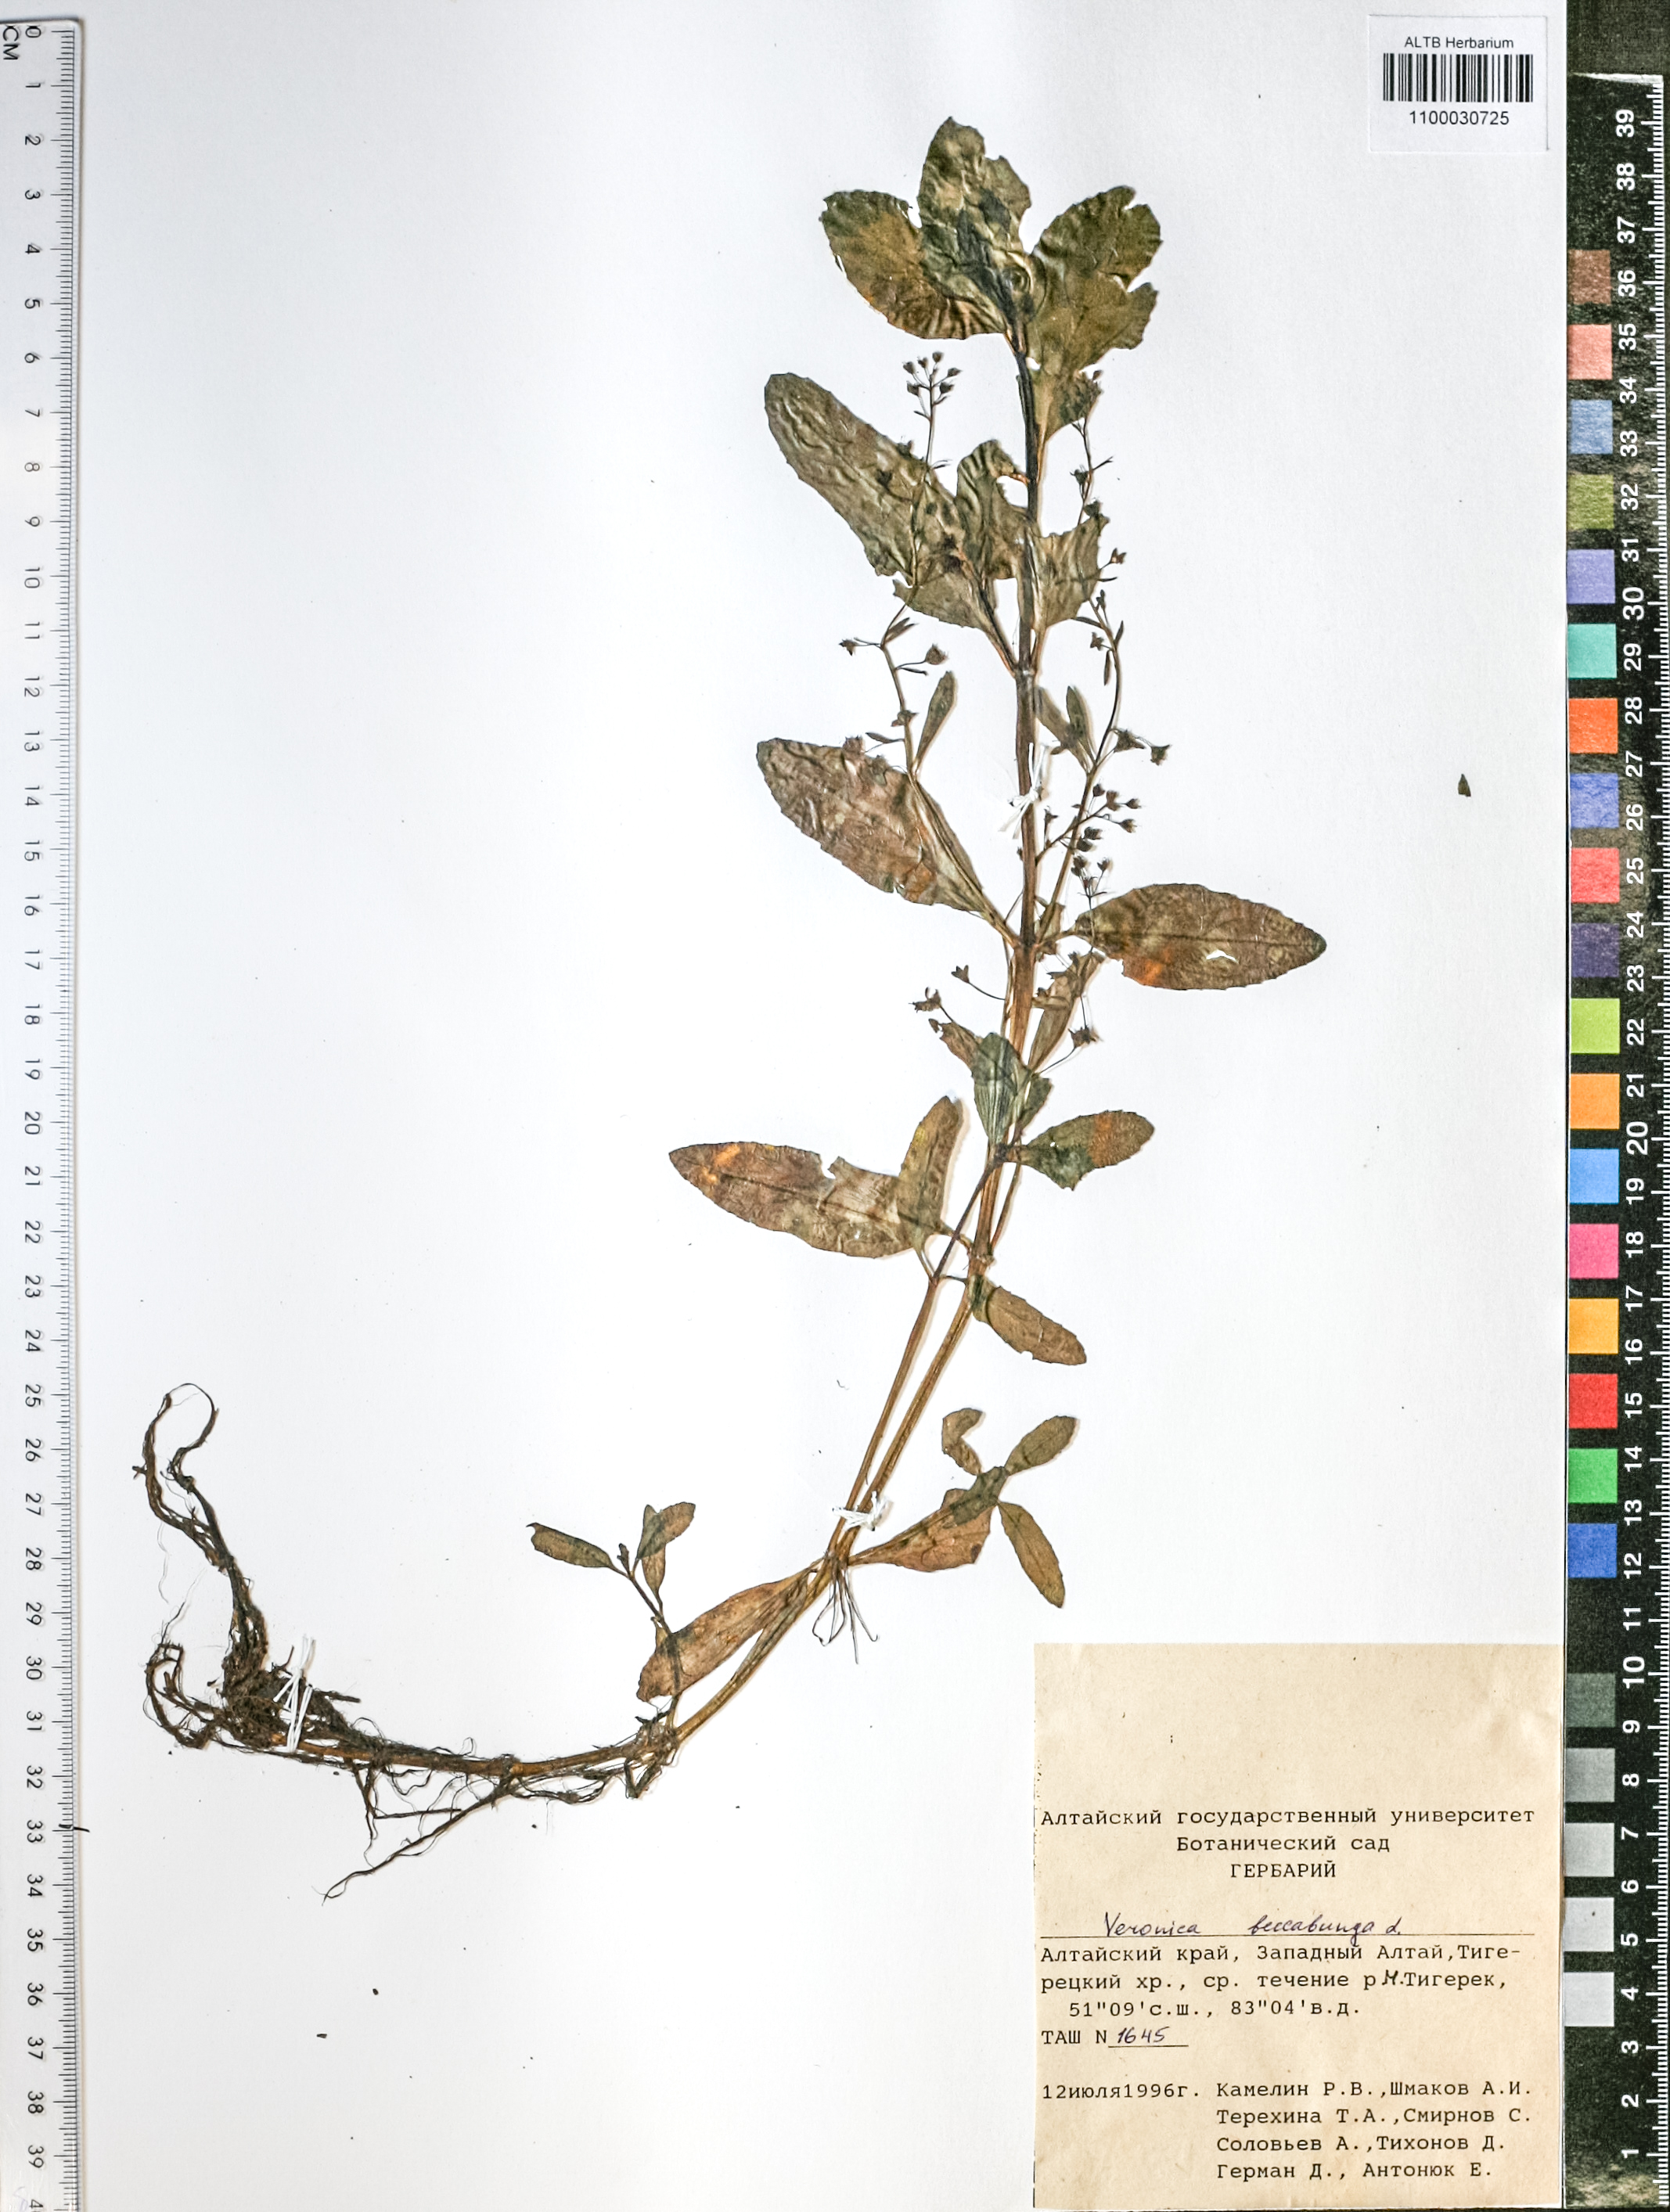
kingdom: Plantae
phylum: Tracheophyta
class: Magnoliopsida
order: Lamiales
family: Plantaginaceae
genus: Veronica
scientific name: Veronica beccabunga
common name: Brooklime
